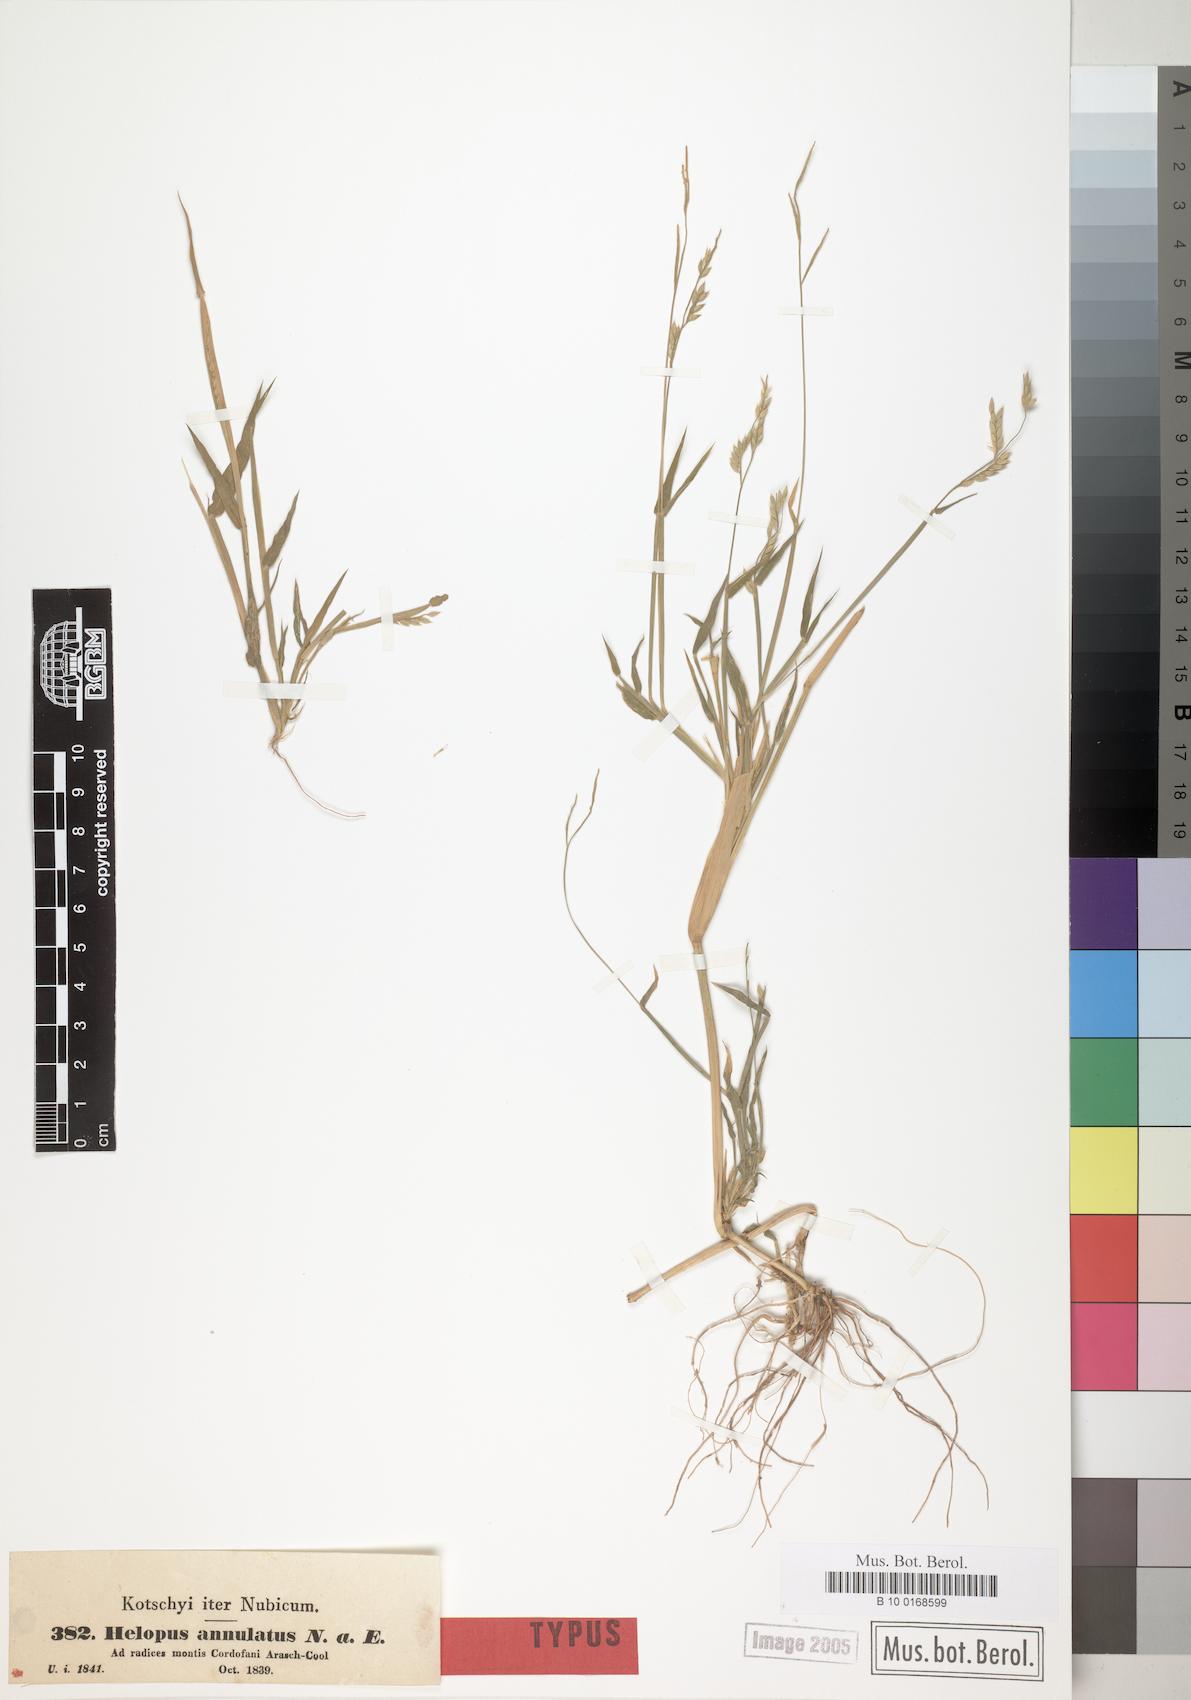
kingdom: Plantae
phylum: Tracheophyta
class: Liliopsida
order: Poales
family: Poaceae
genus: Eriochloa
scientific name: Eriochloa Helopus annulatus
